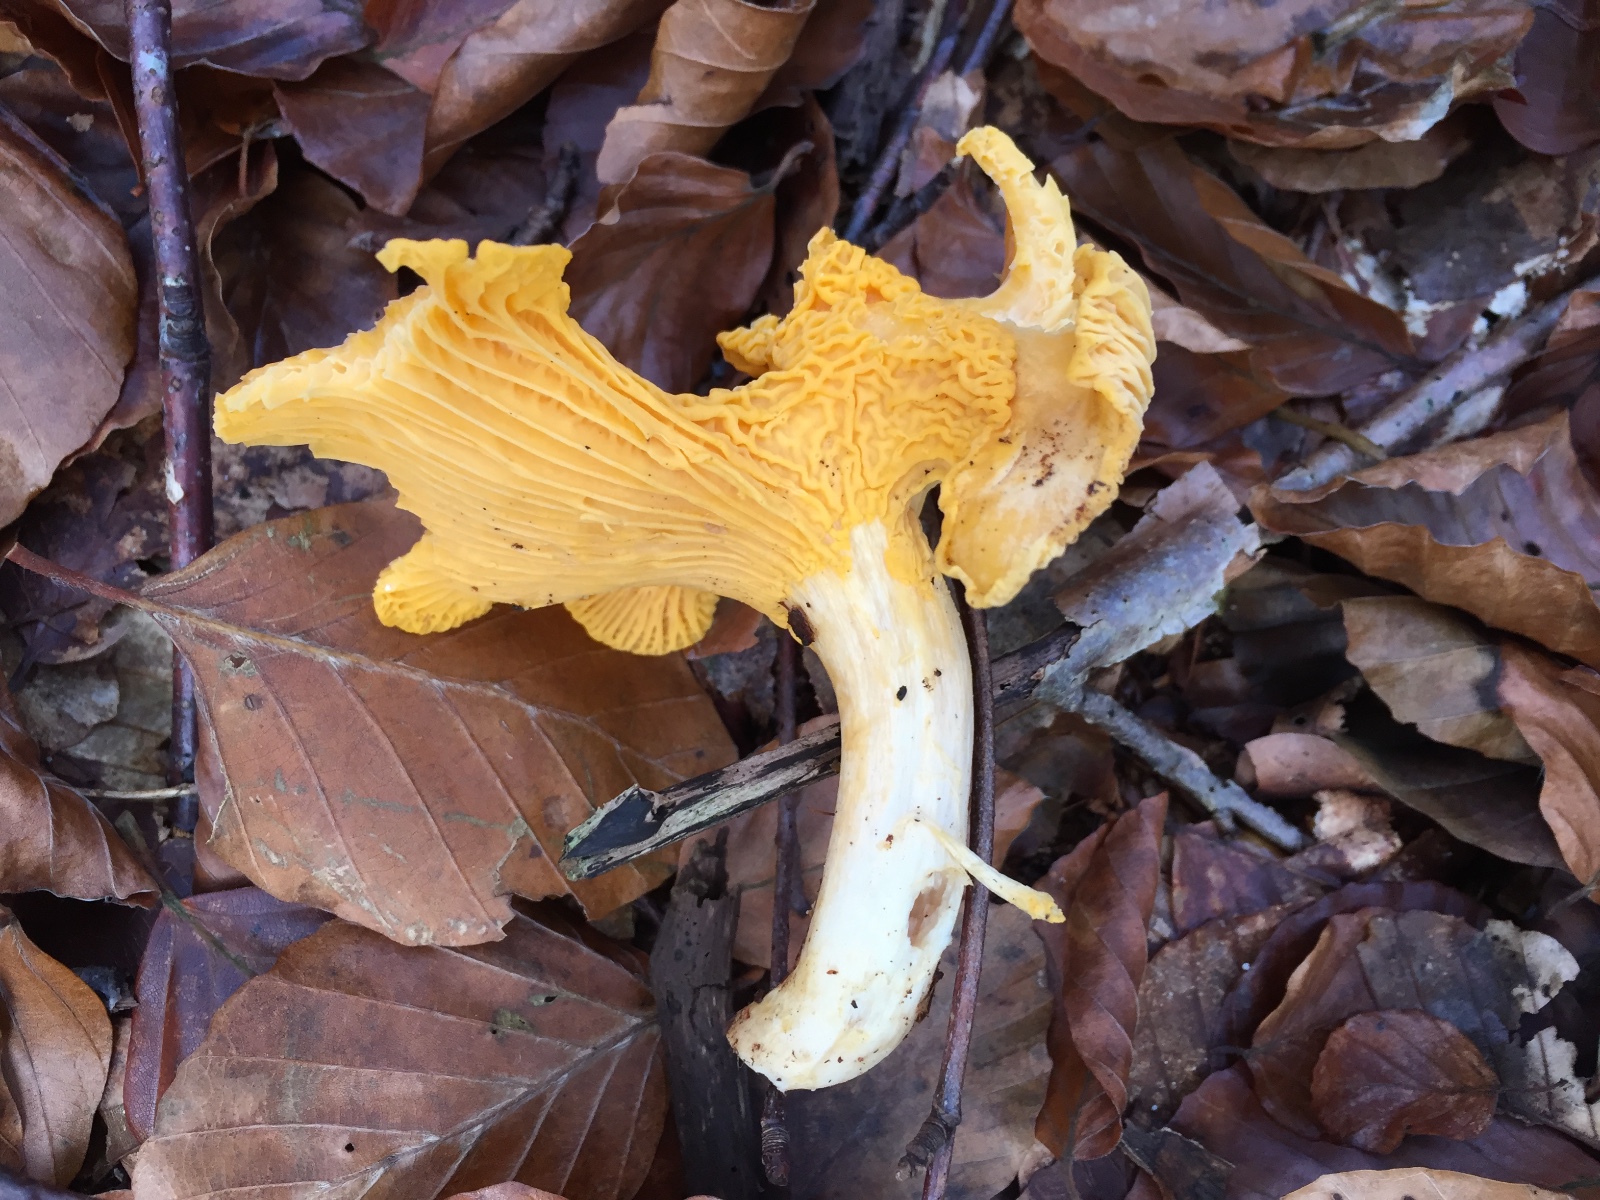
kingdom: Fungi
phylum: Basidiomycota
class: Agaricomycetes
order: Cantharellales
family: Hydnaceae
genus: Cantharellus
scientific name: Cantharellus cibarius
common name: almindelig kantarel
